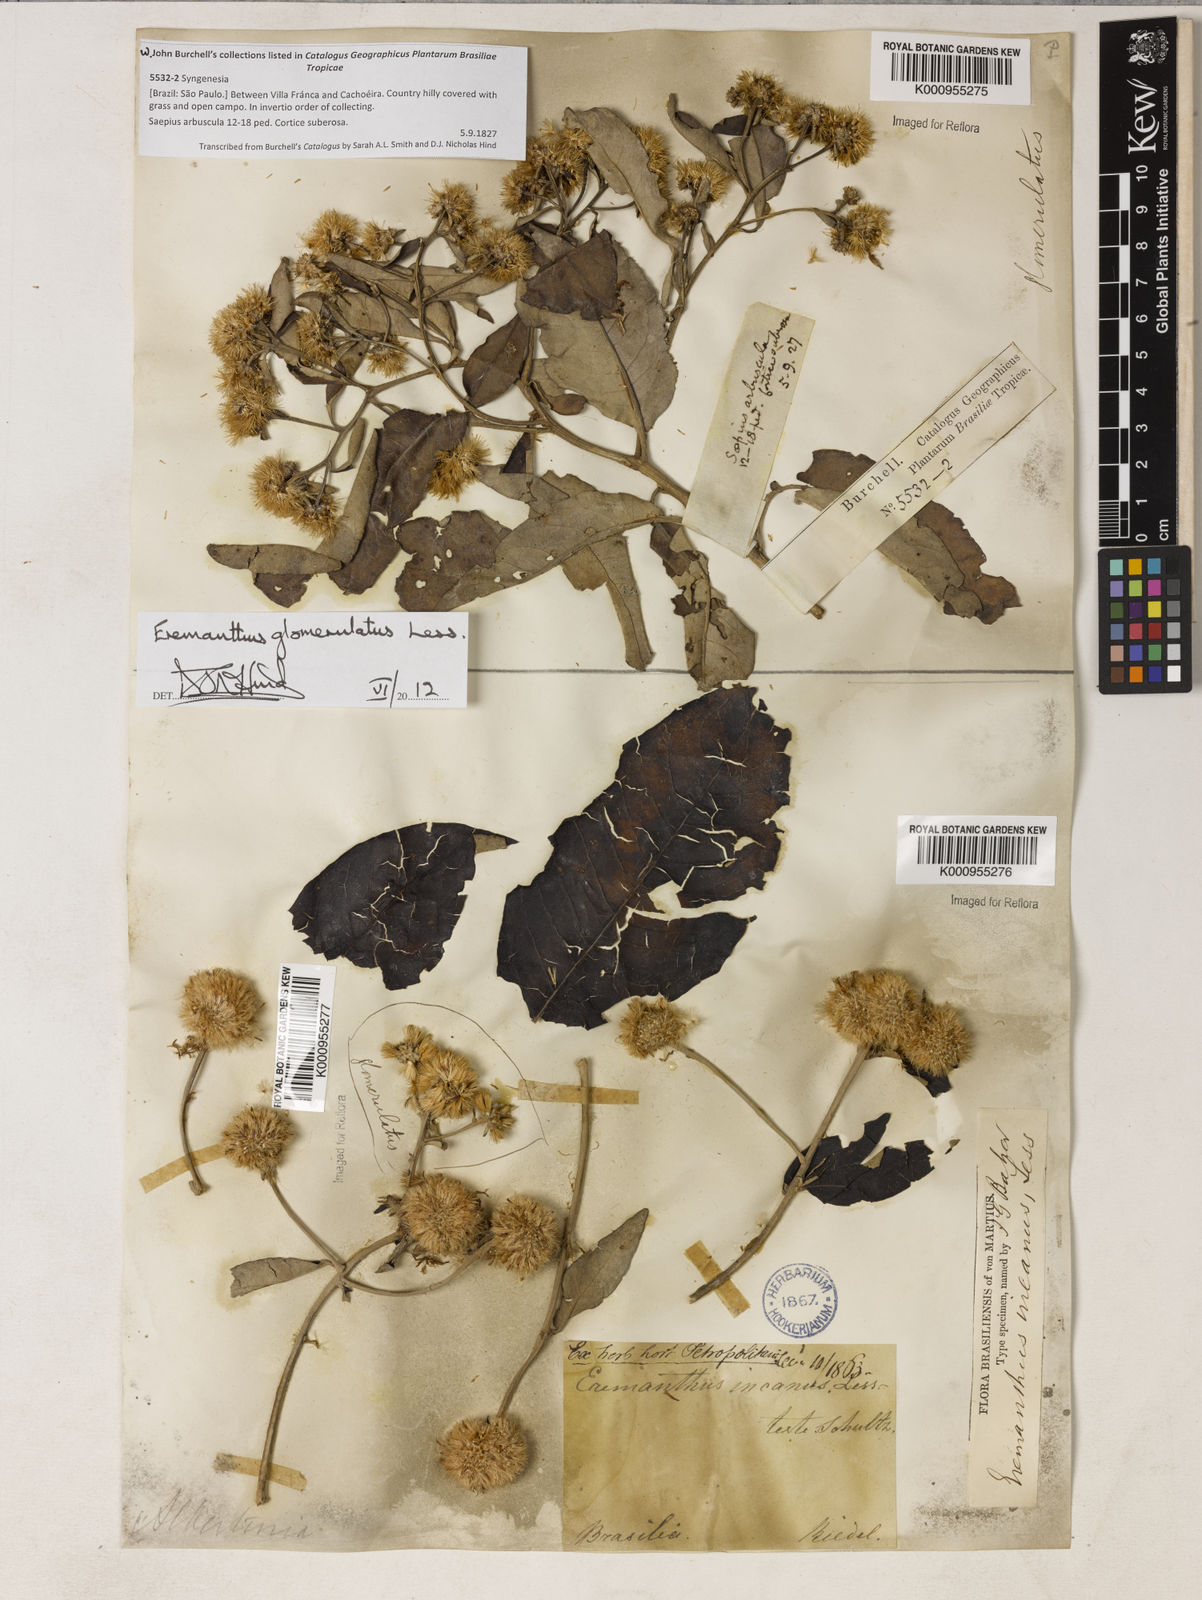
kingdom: Plantae
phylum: Tracheophyta
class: Magnoliopsida
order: Asterales
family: Asteraceae
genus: Eremanthus
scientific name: Eremanthus glomerulatus
